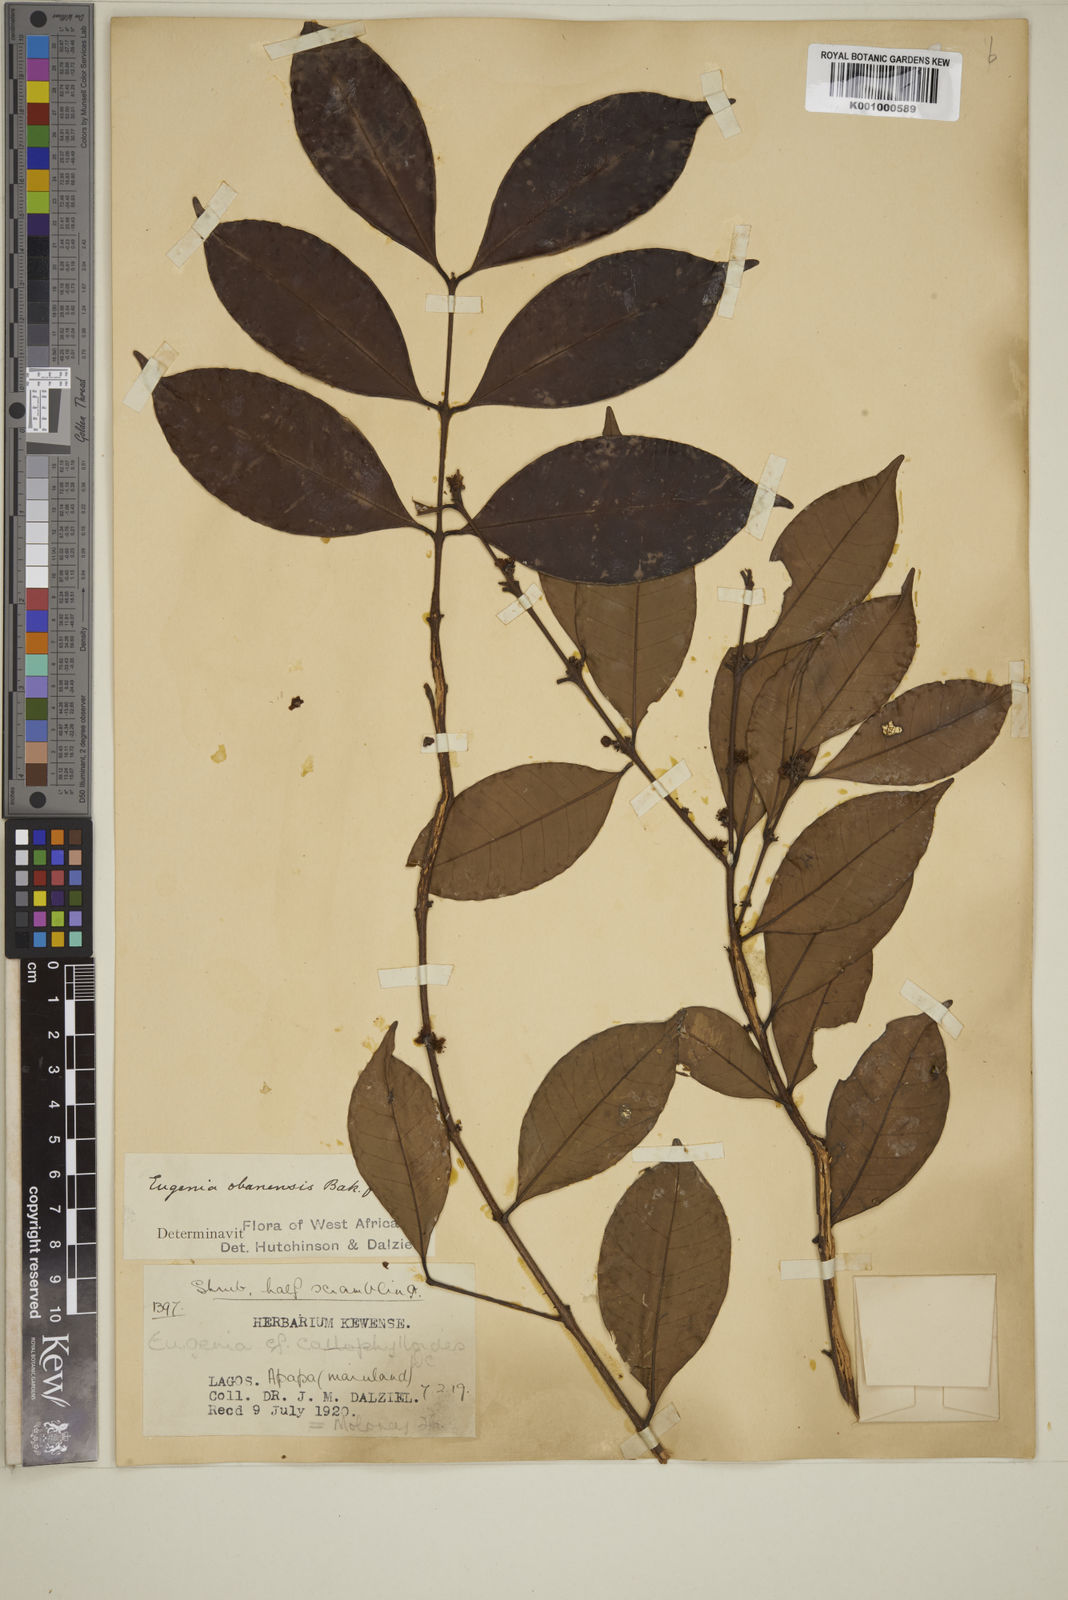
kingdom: Plantae
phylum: Tracheophyta
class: Magnoliopsida
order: Myrtales
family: Myrtaceae
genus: Eugenia
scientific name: Eugenia obanensis
